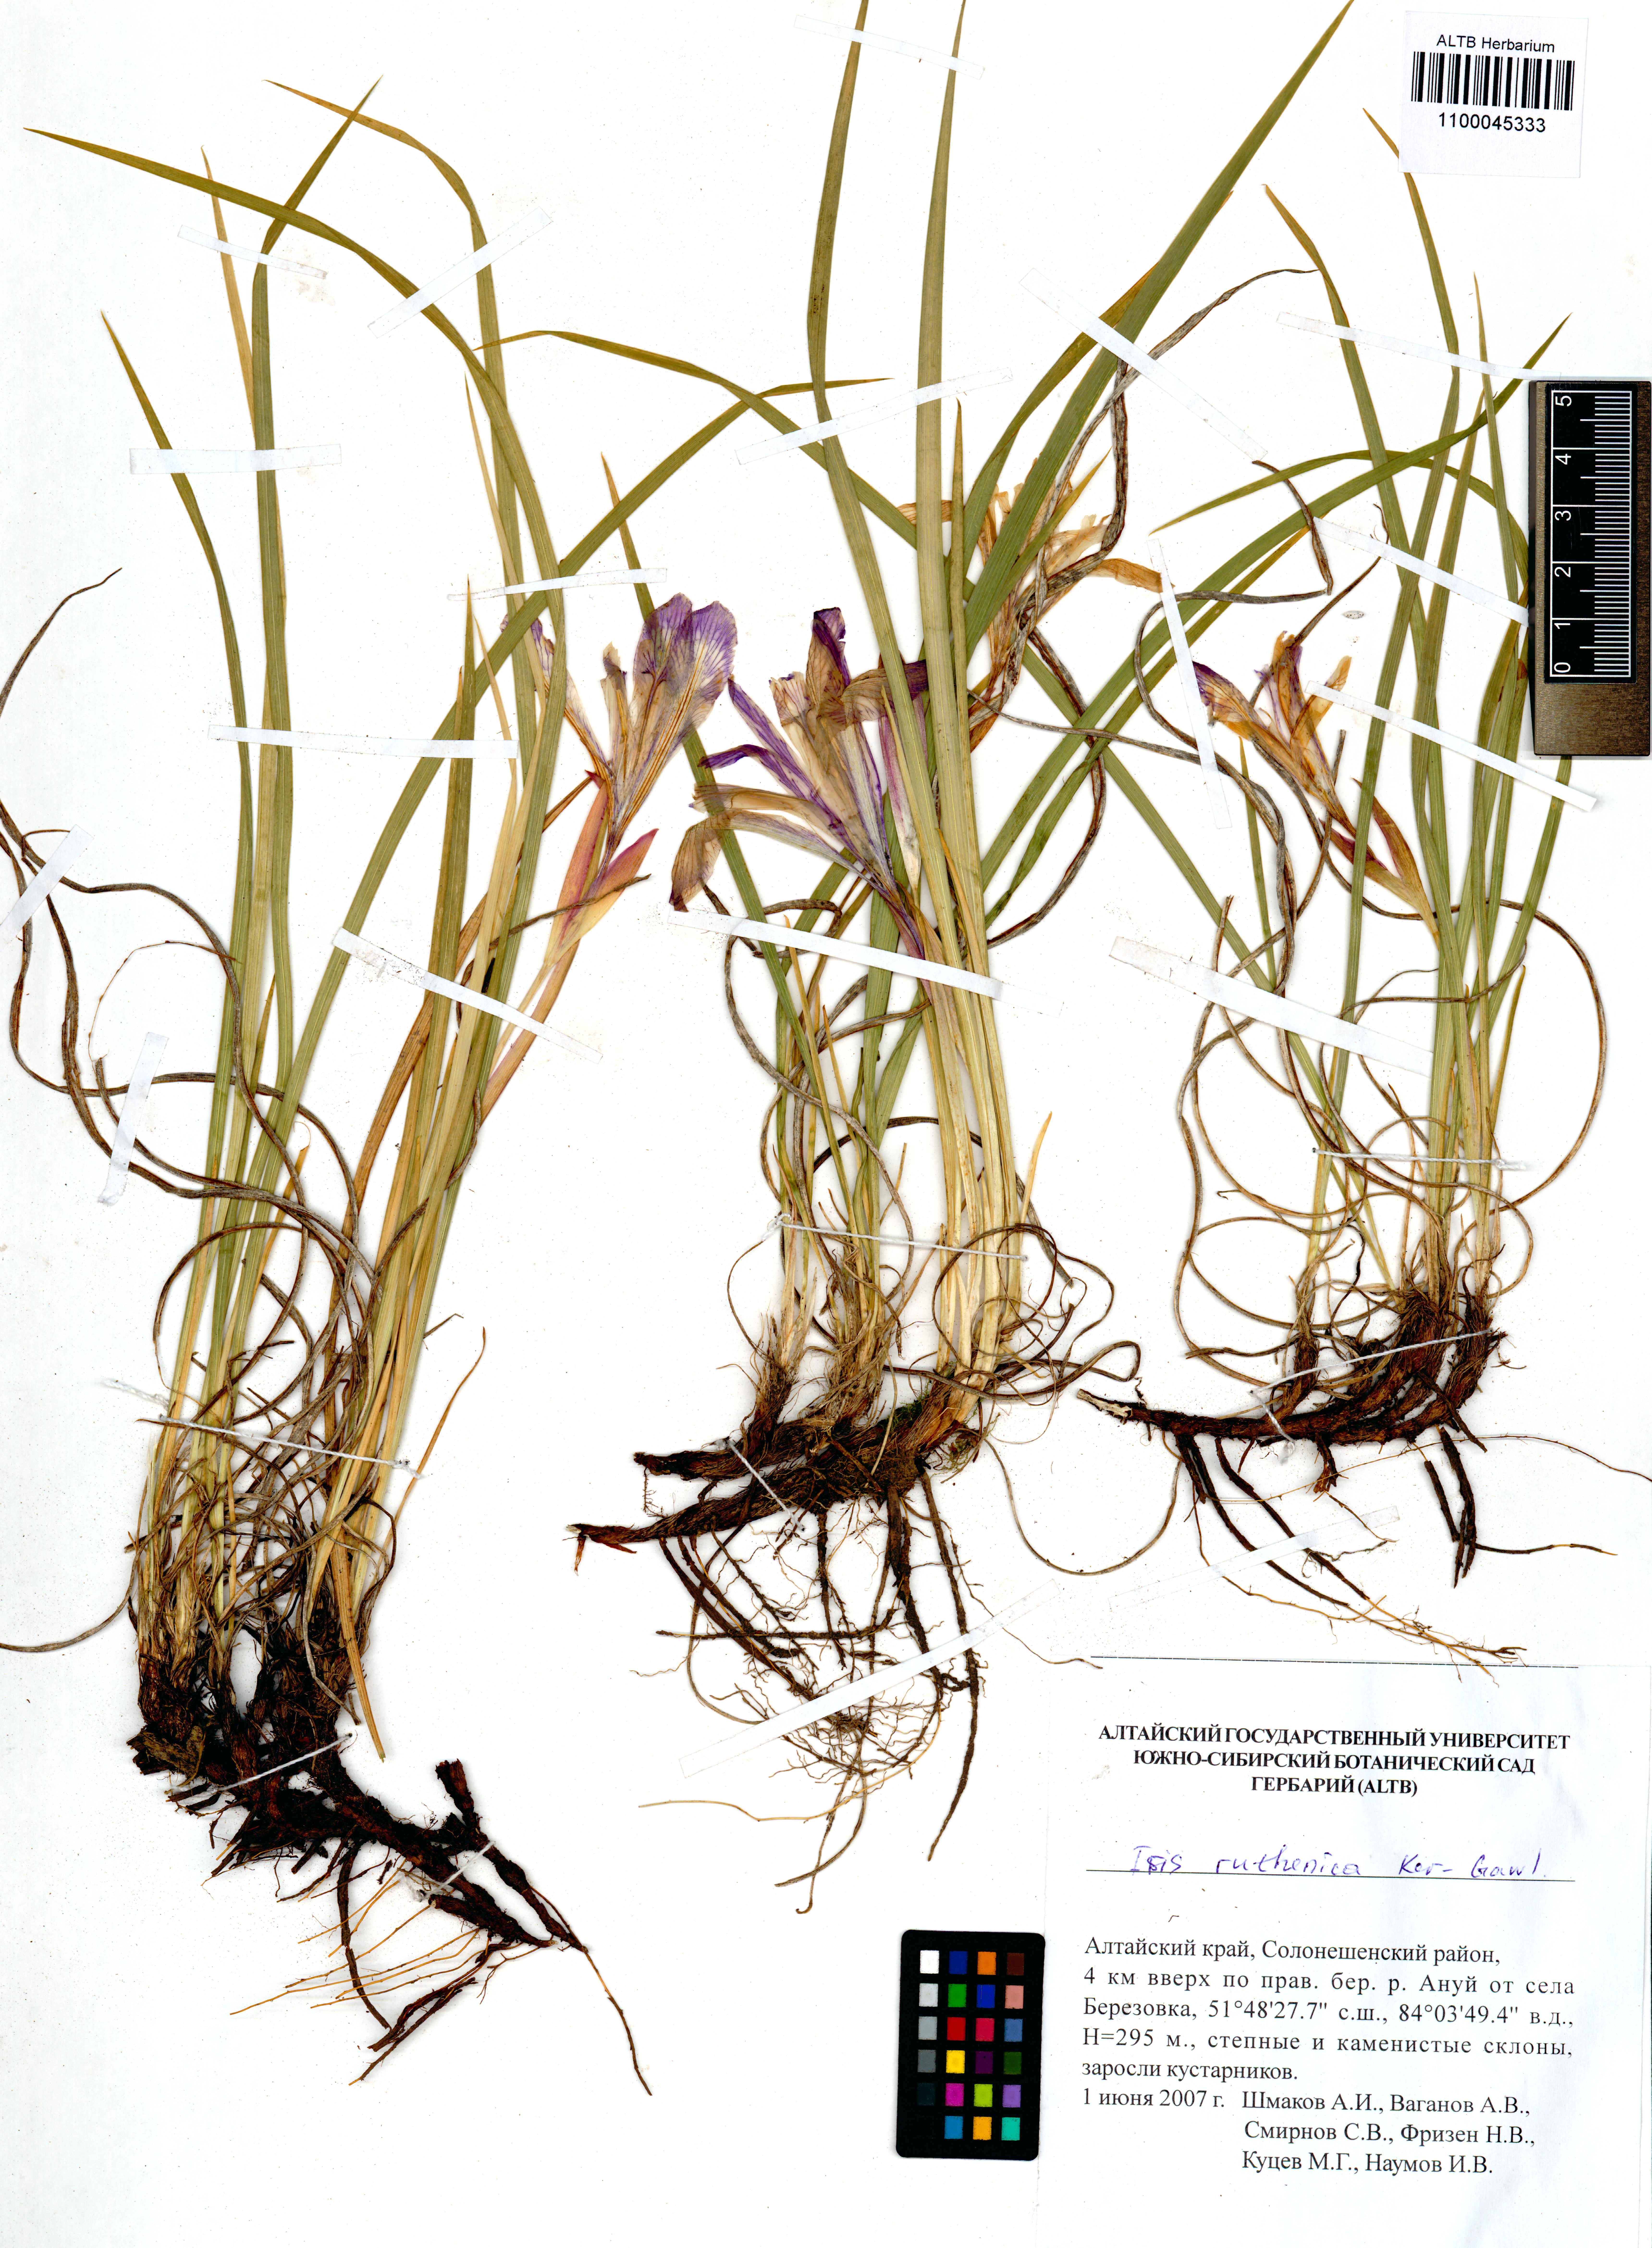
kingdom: Plantae
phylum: Tracheophyta
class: Liliopsida
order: Asparagales
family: Iridaceae
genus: Iris
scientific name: Iris ruthenica
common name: Purple-bract iris
